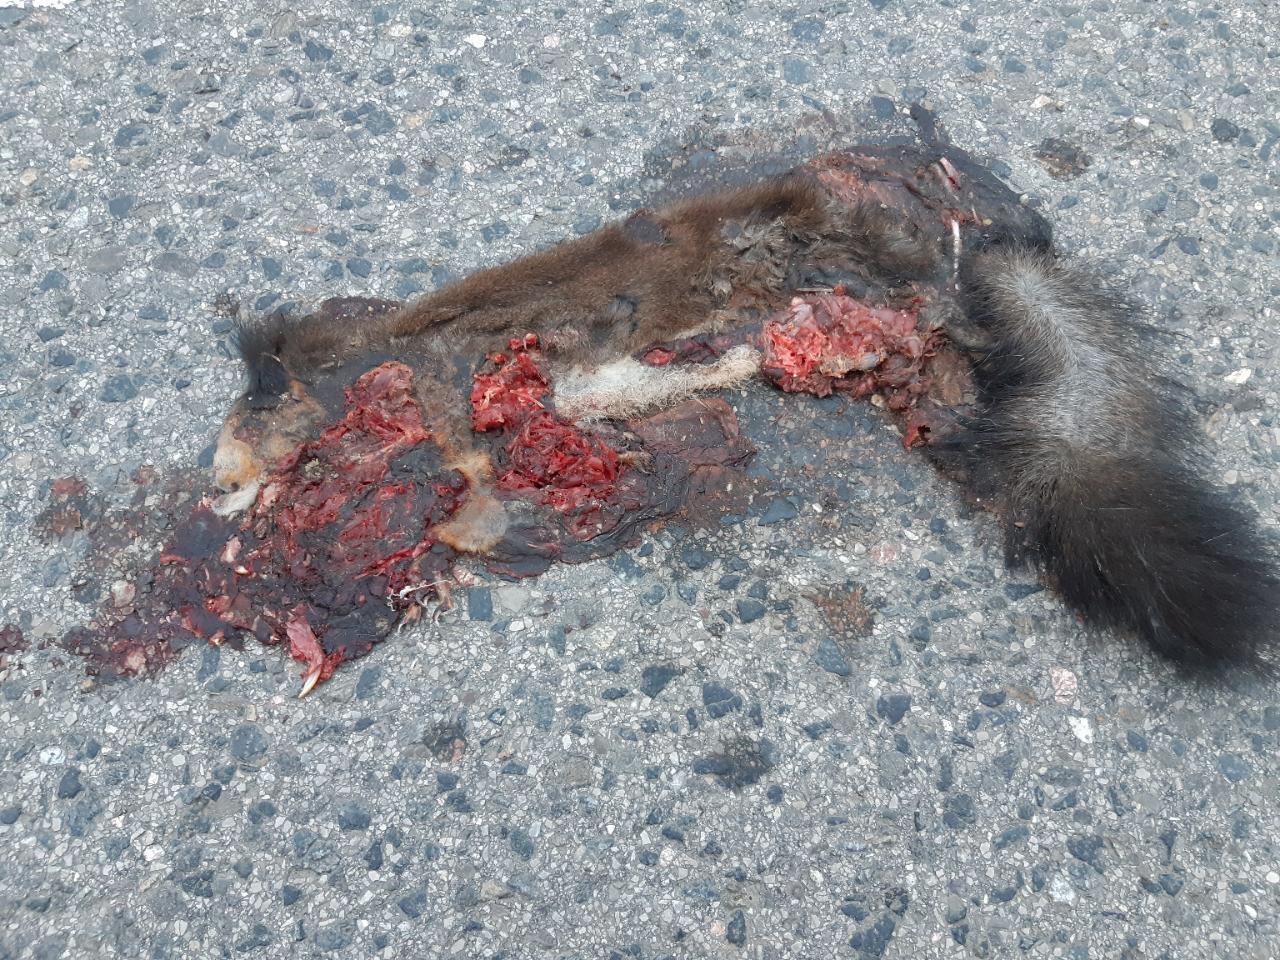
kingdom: Animalia
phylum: Chordata
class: Mammalia
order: Rodentia
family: Sciuridae
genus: Sciurus
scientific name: Sciurus vulgaris
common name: Eurasian red squirrel
